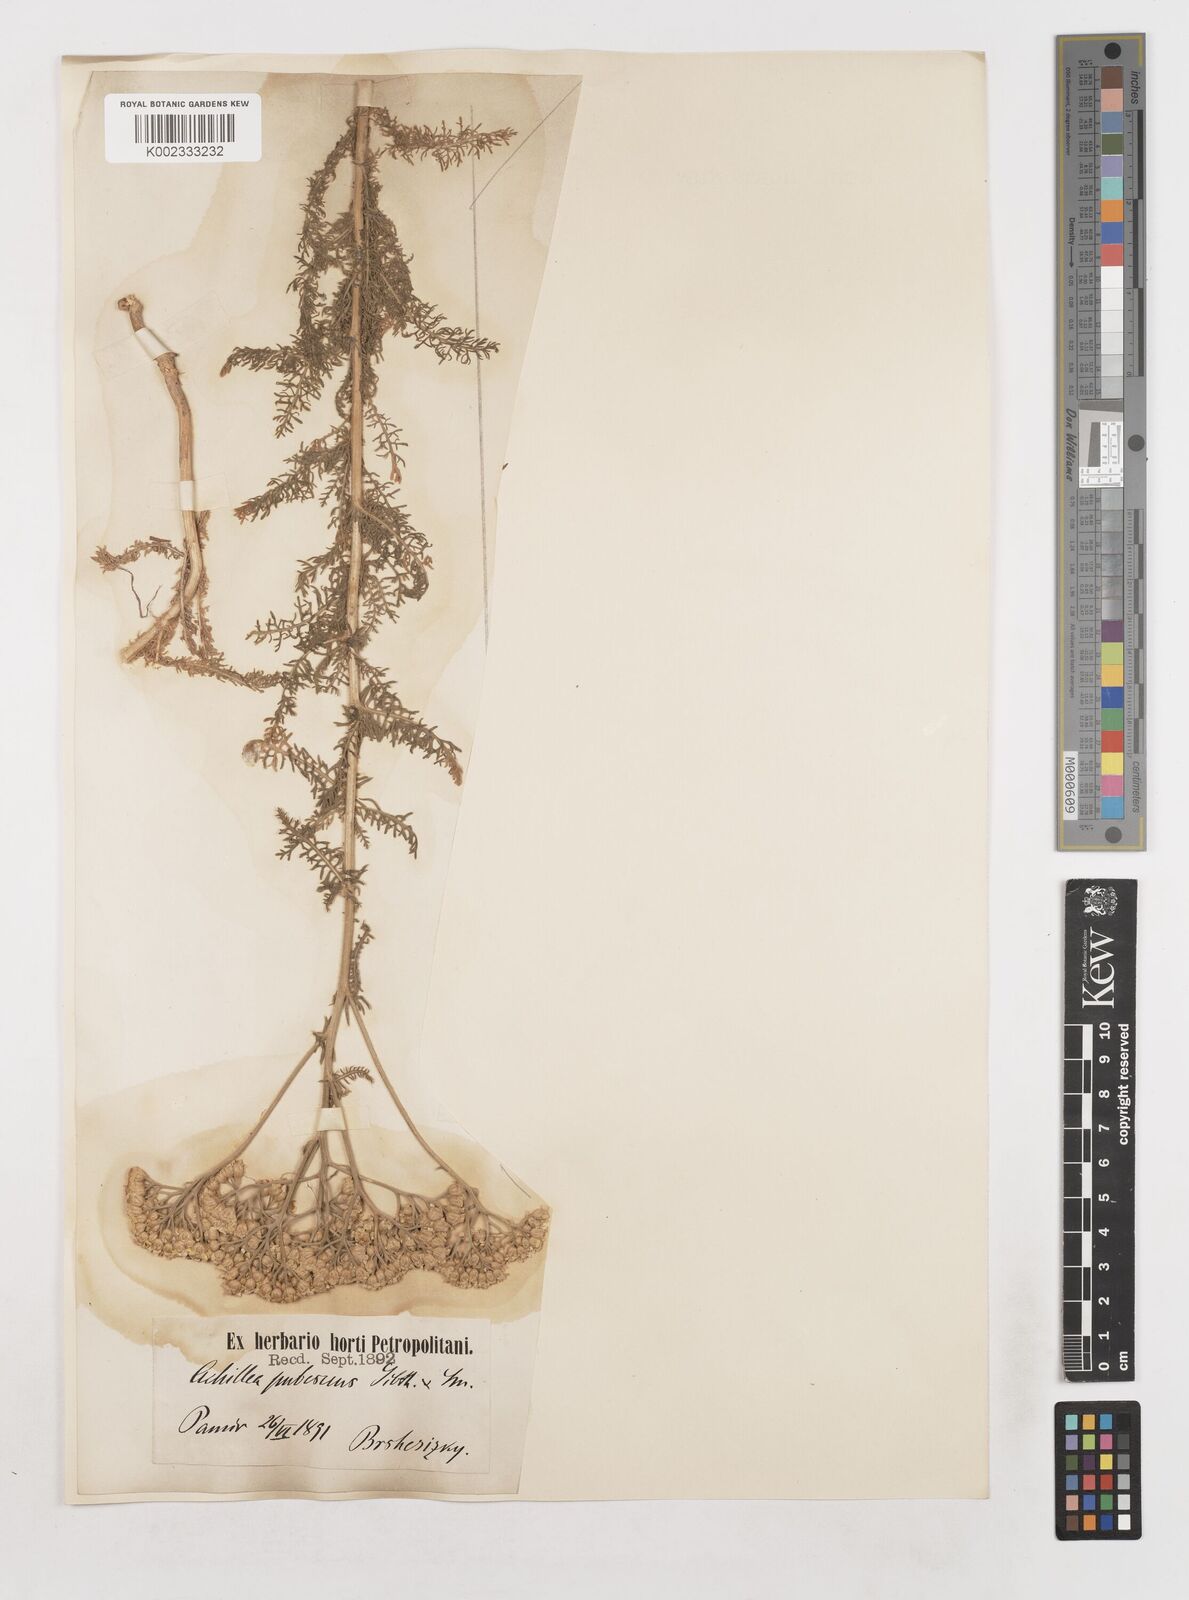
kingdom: Plantae
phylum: Tracheophyta
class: Magnoliopsida
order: Asterales
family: Asteraceae
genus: Achillea
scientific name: Achillea micrantha
